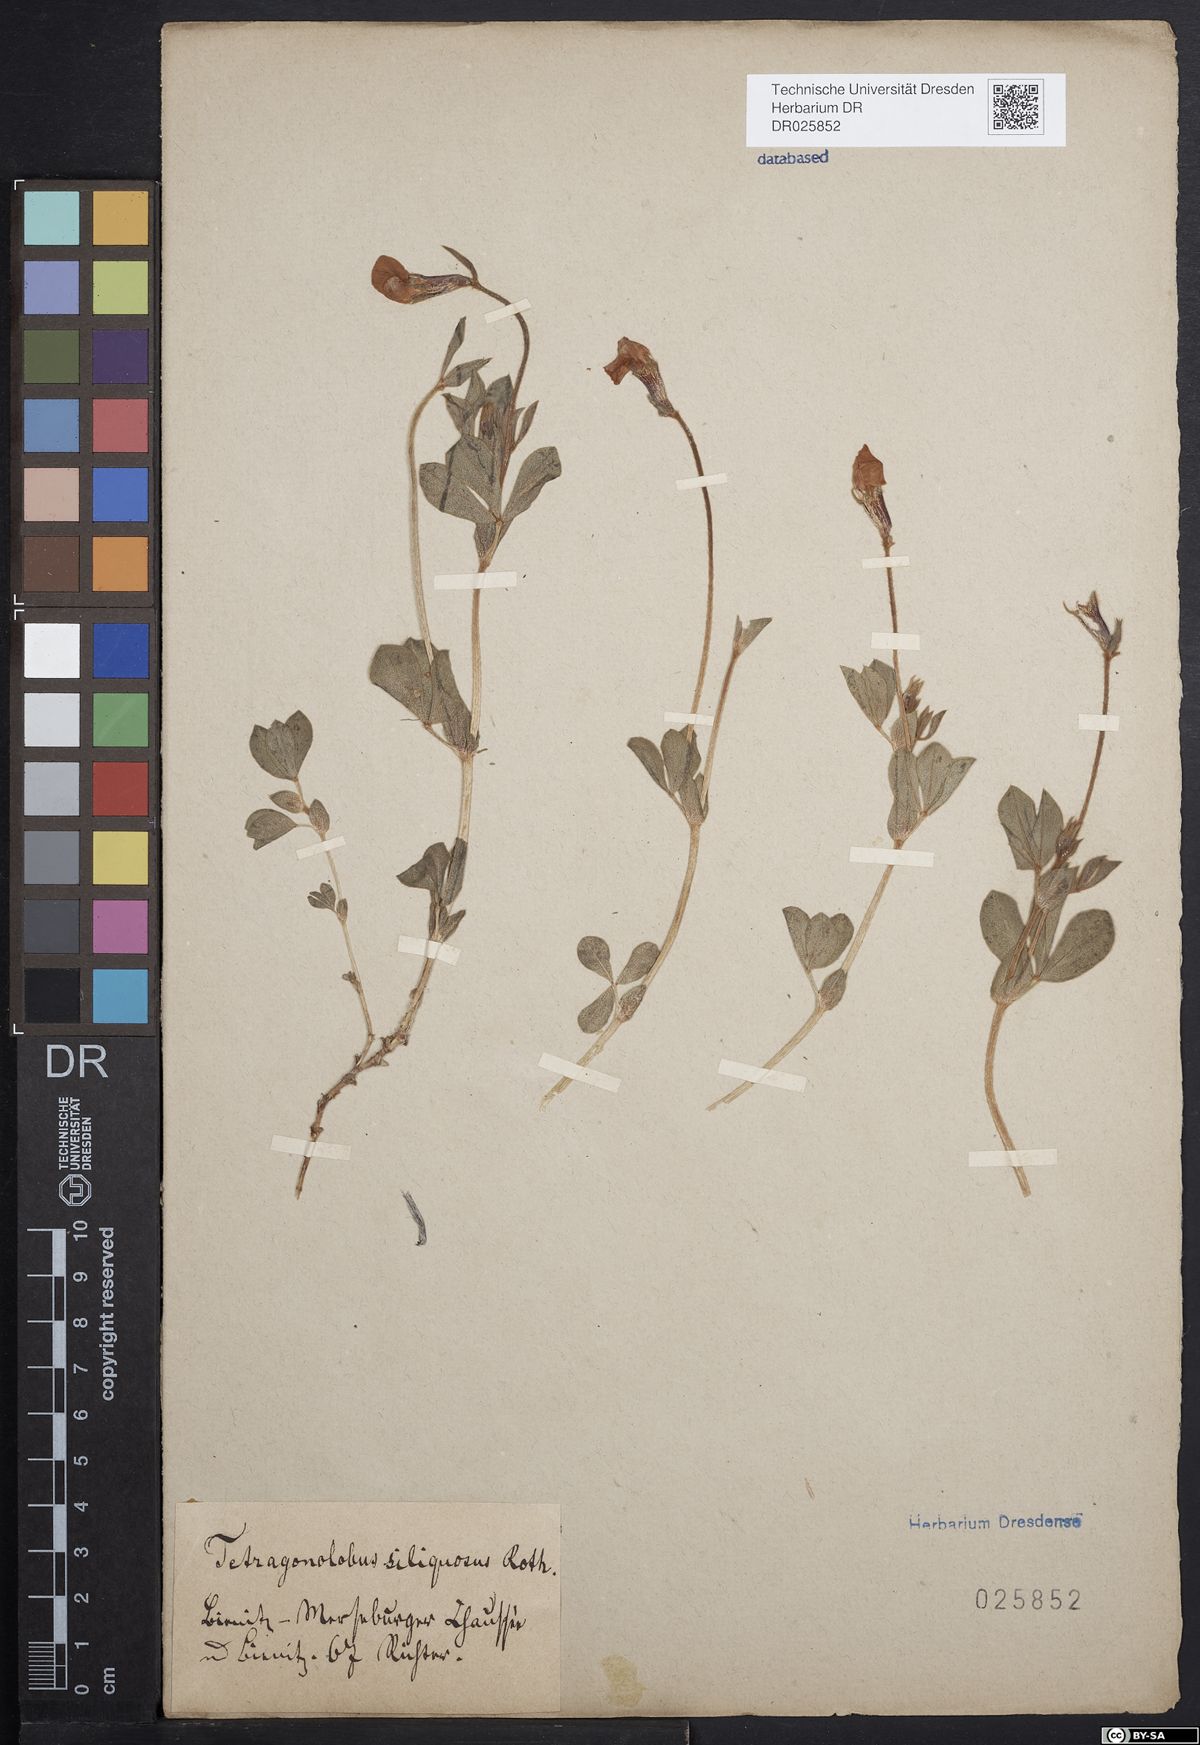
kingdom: Plantae
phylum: Tracheophyta
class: Magnoliopsida
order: Fabales
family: Fabaceae
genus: Lotus
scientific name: Lotus maritimus
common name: Dragon's-teeth
